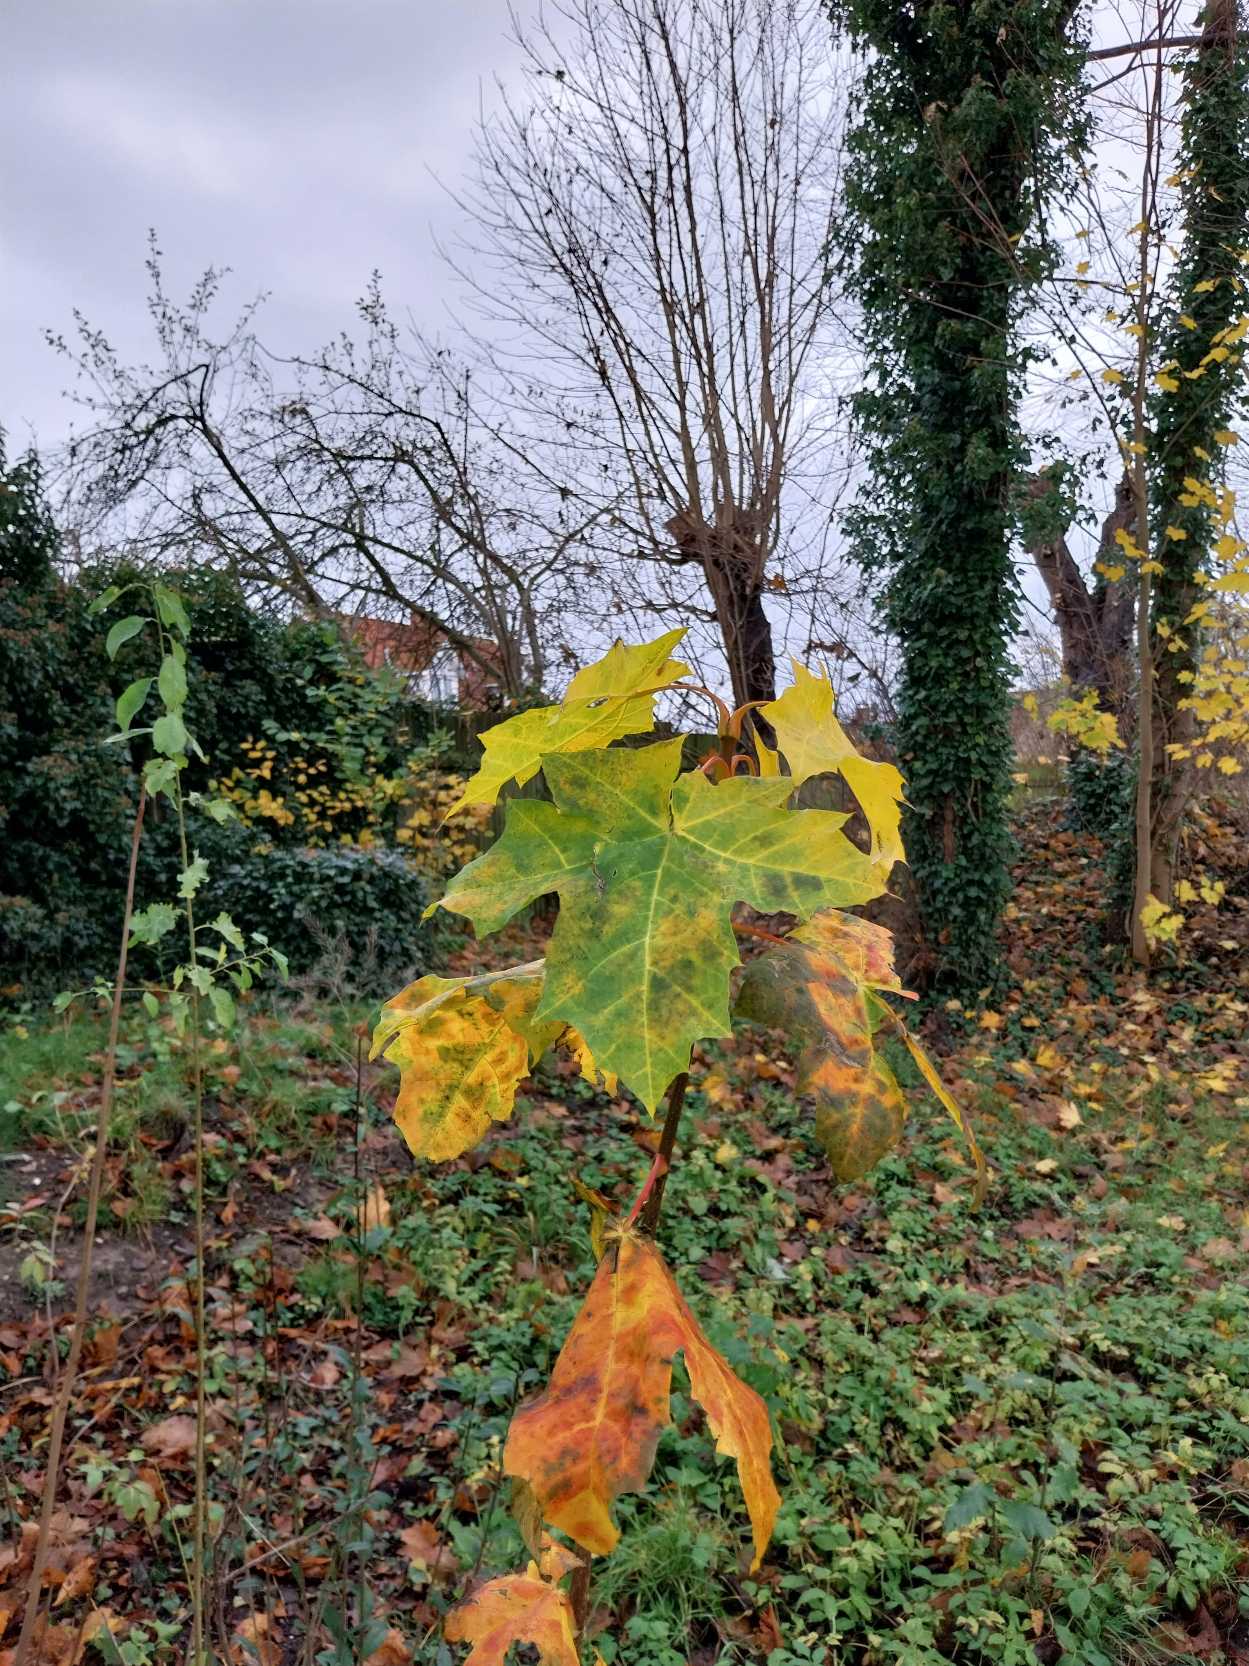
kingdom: Plantae
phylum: Tracheophyta
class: Magnoliopsida
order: Sapindales
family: Sapindaceae
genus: Acer
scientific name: Acer platanoides
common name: Spids-løn
